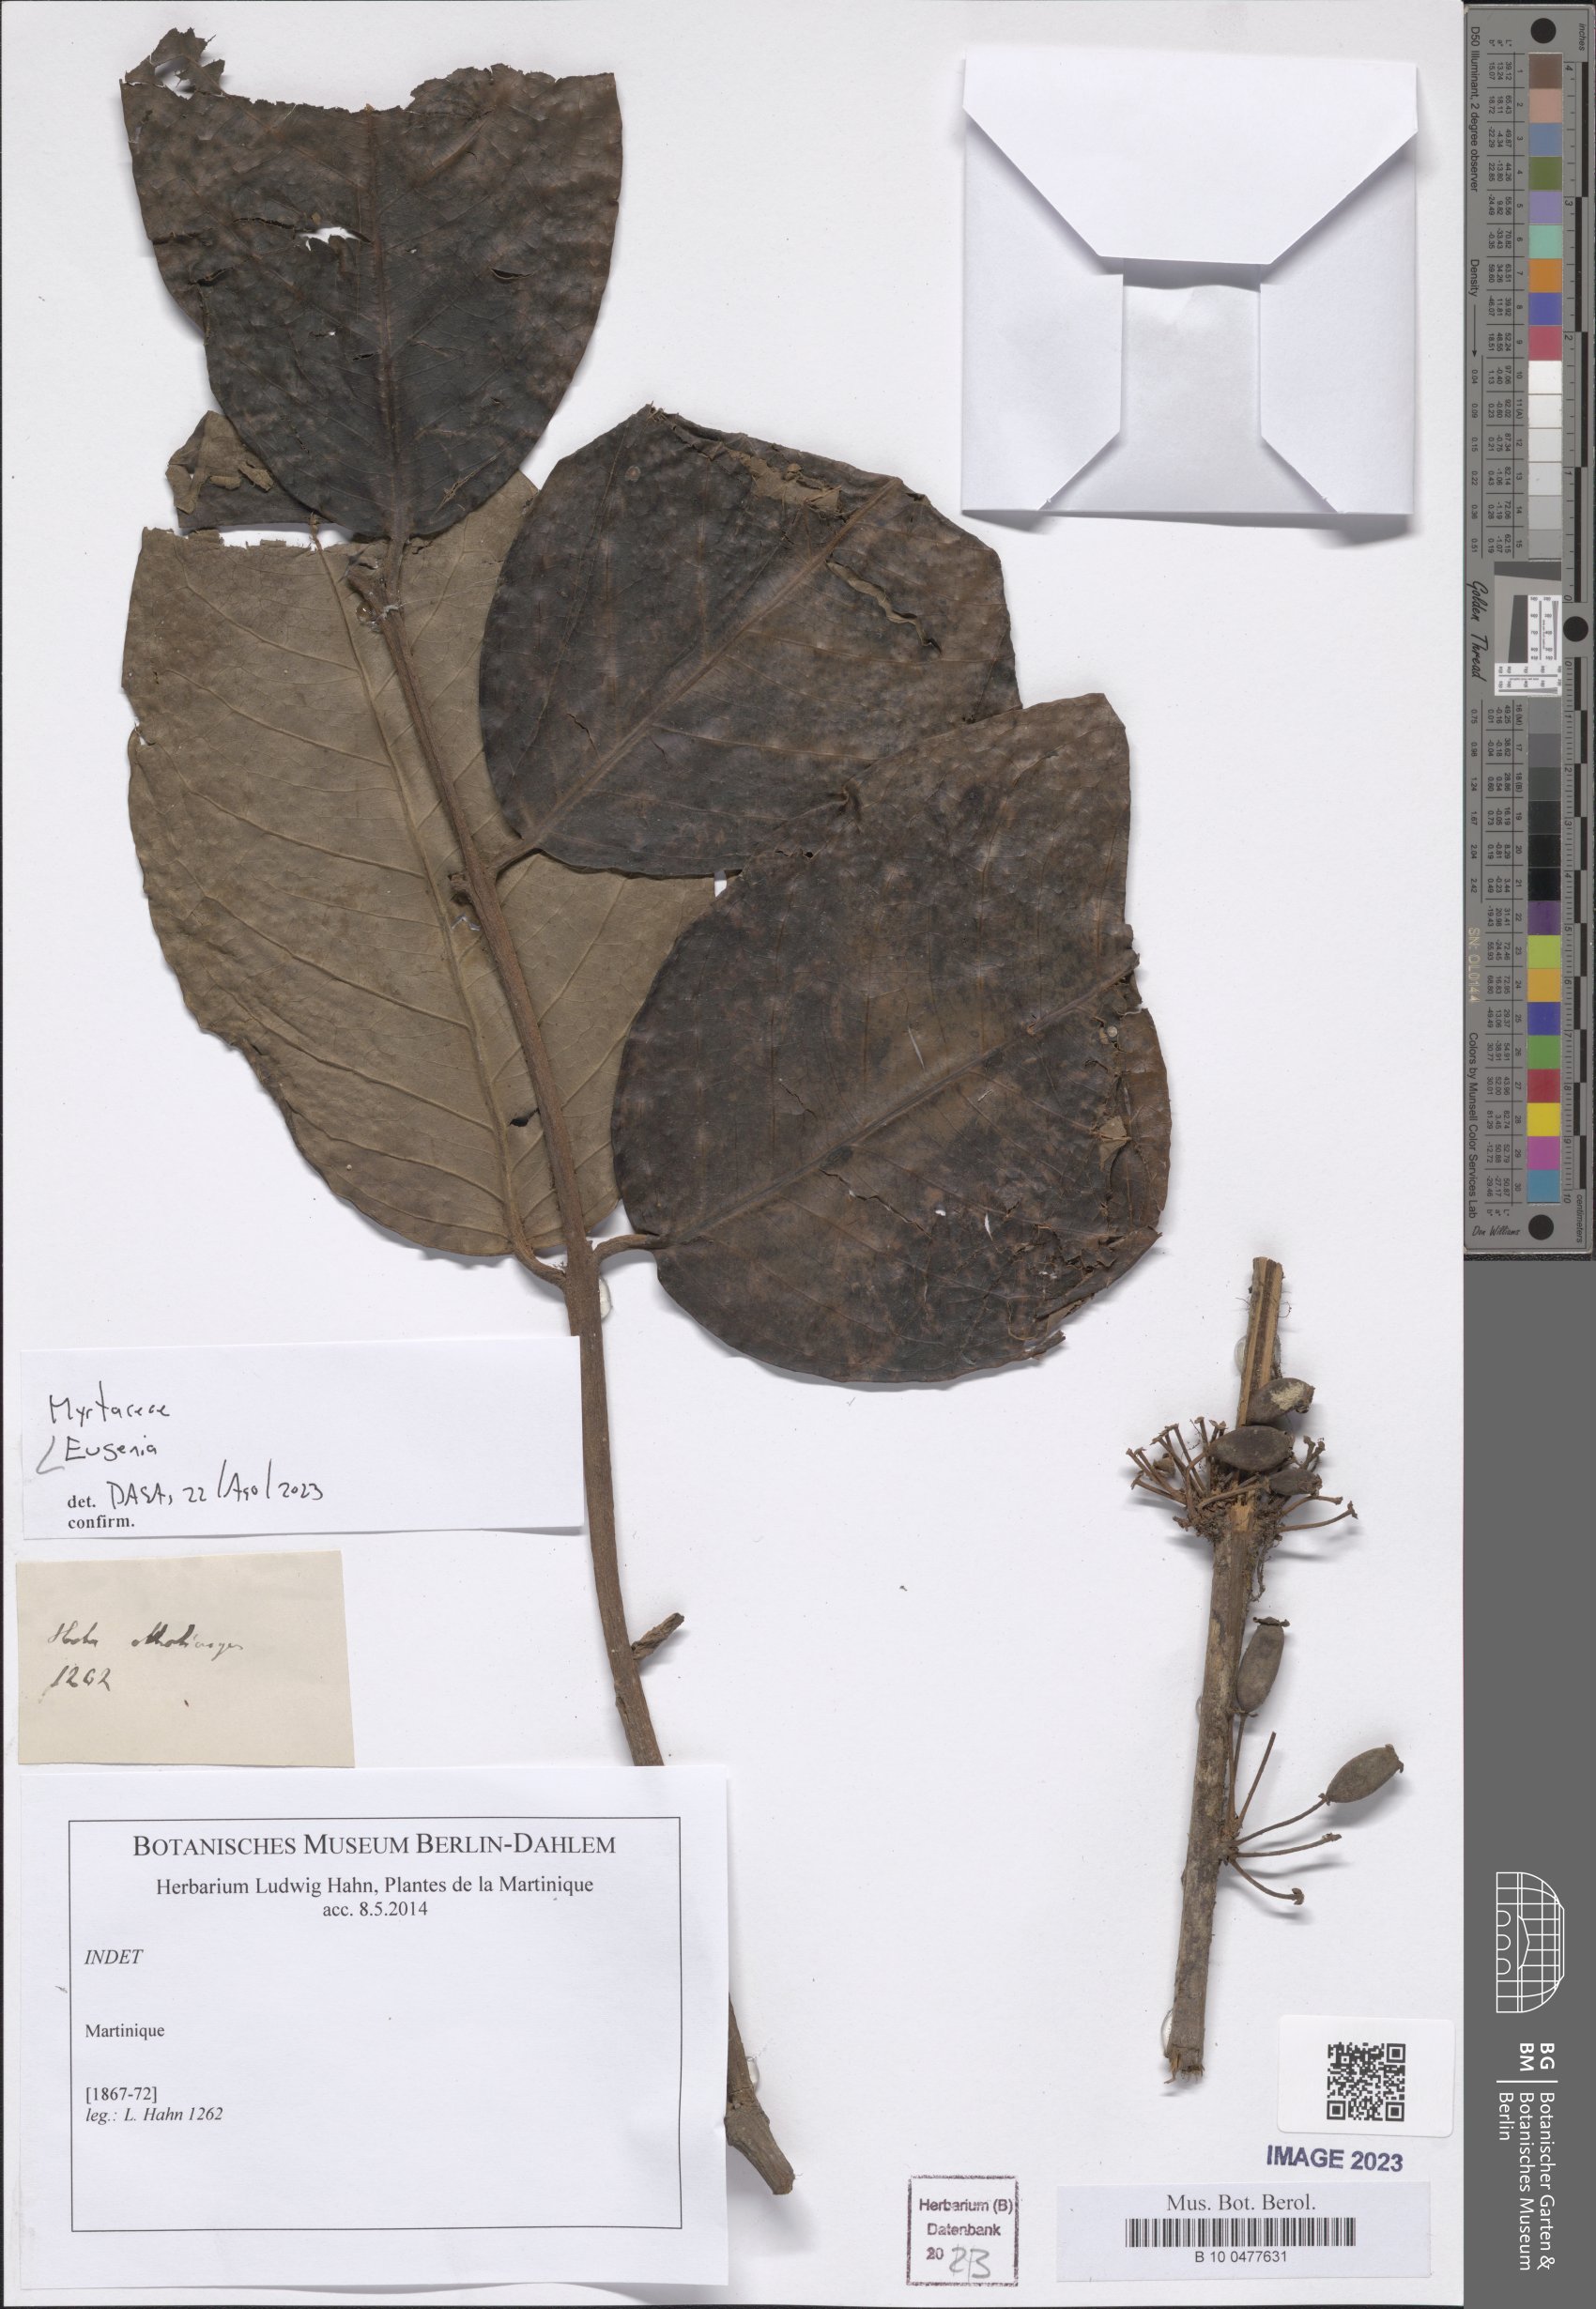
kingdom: Plantae
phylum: Tracheophyta
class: Magnoliopsida
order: Myrtales
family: Myrtaceae
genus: Eugenia
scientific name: Eugenia
